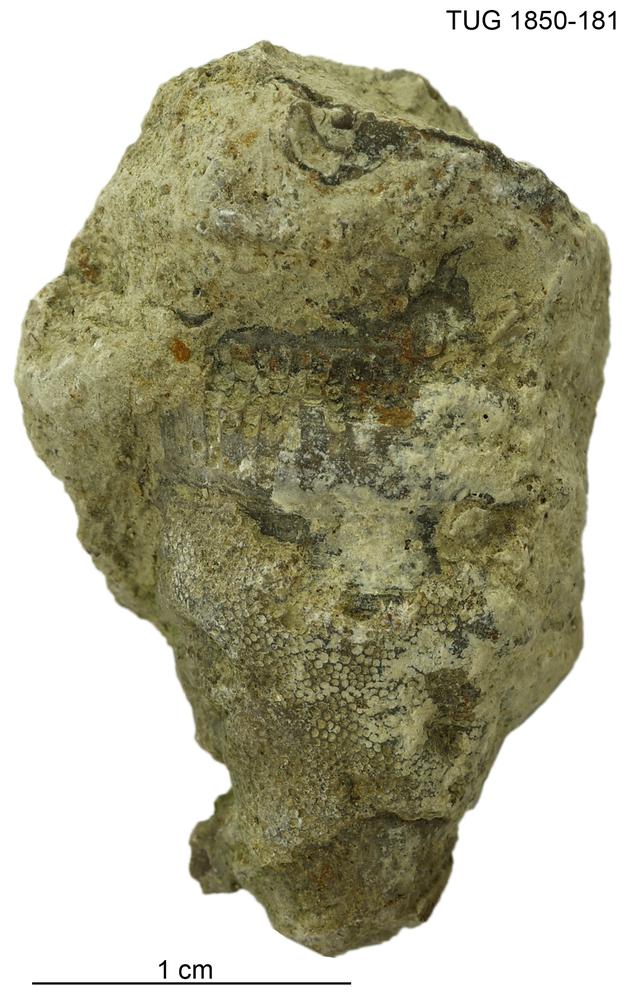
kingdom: Animalia
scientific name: Animalia
